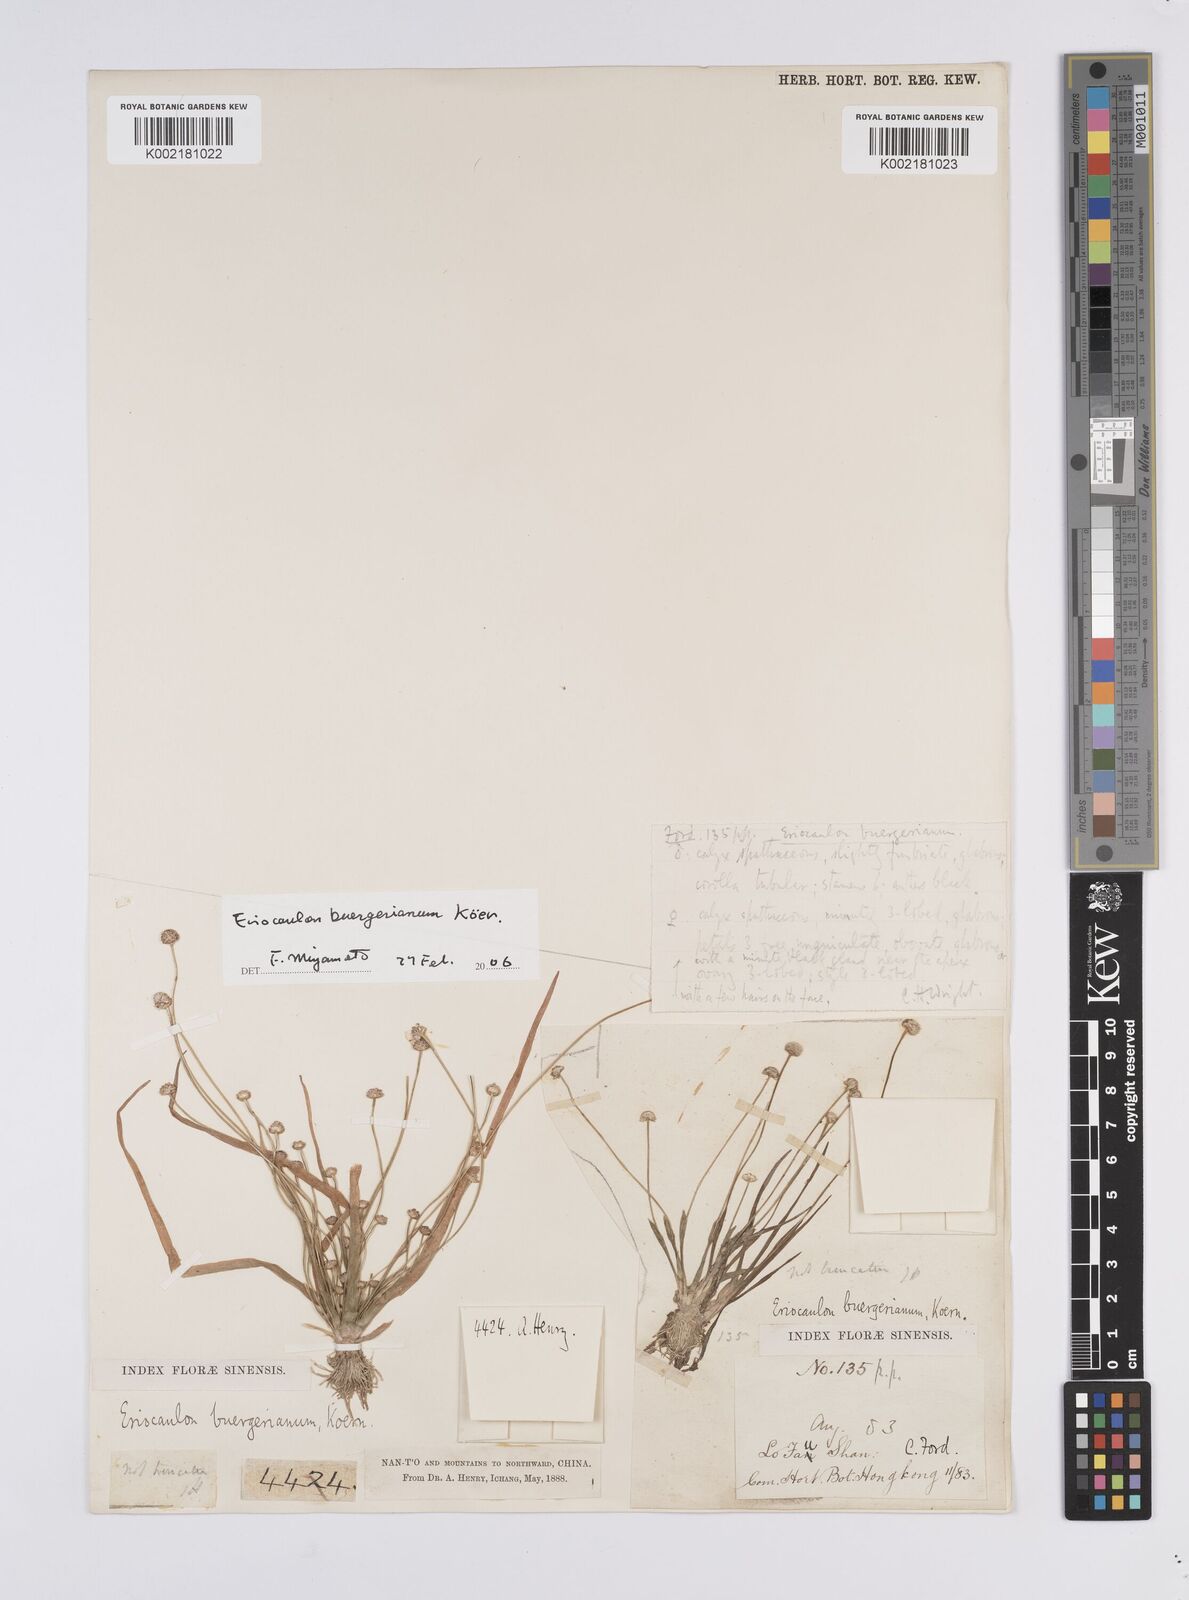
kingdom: Plantae
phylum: Tracheophyta
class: Liliopsida
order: Poales
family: Eriocaulaceae
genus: Eriocaulon
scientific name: Eriocaulon buergerianum
